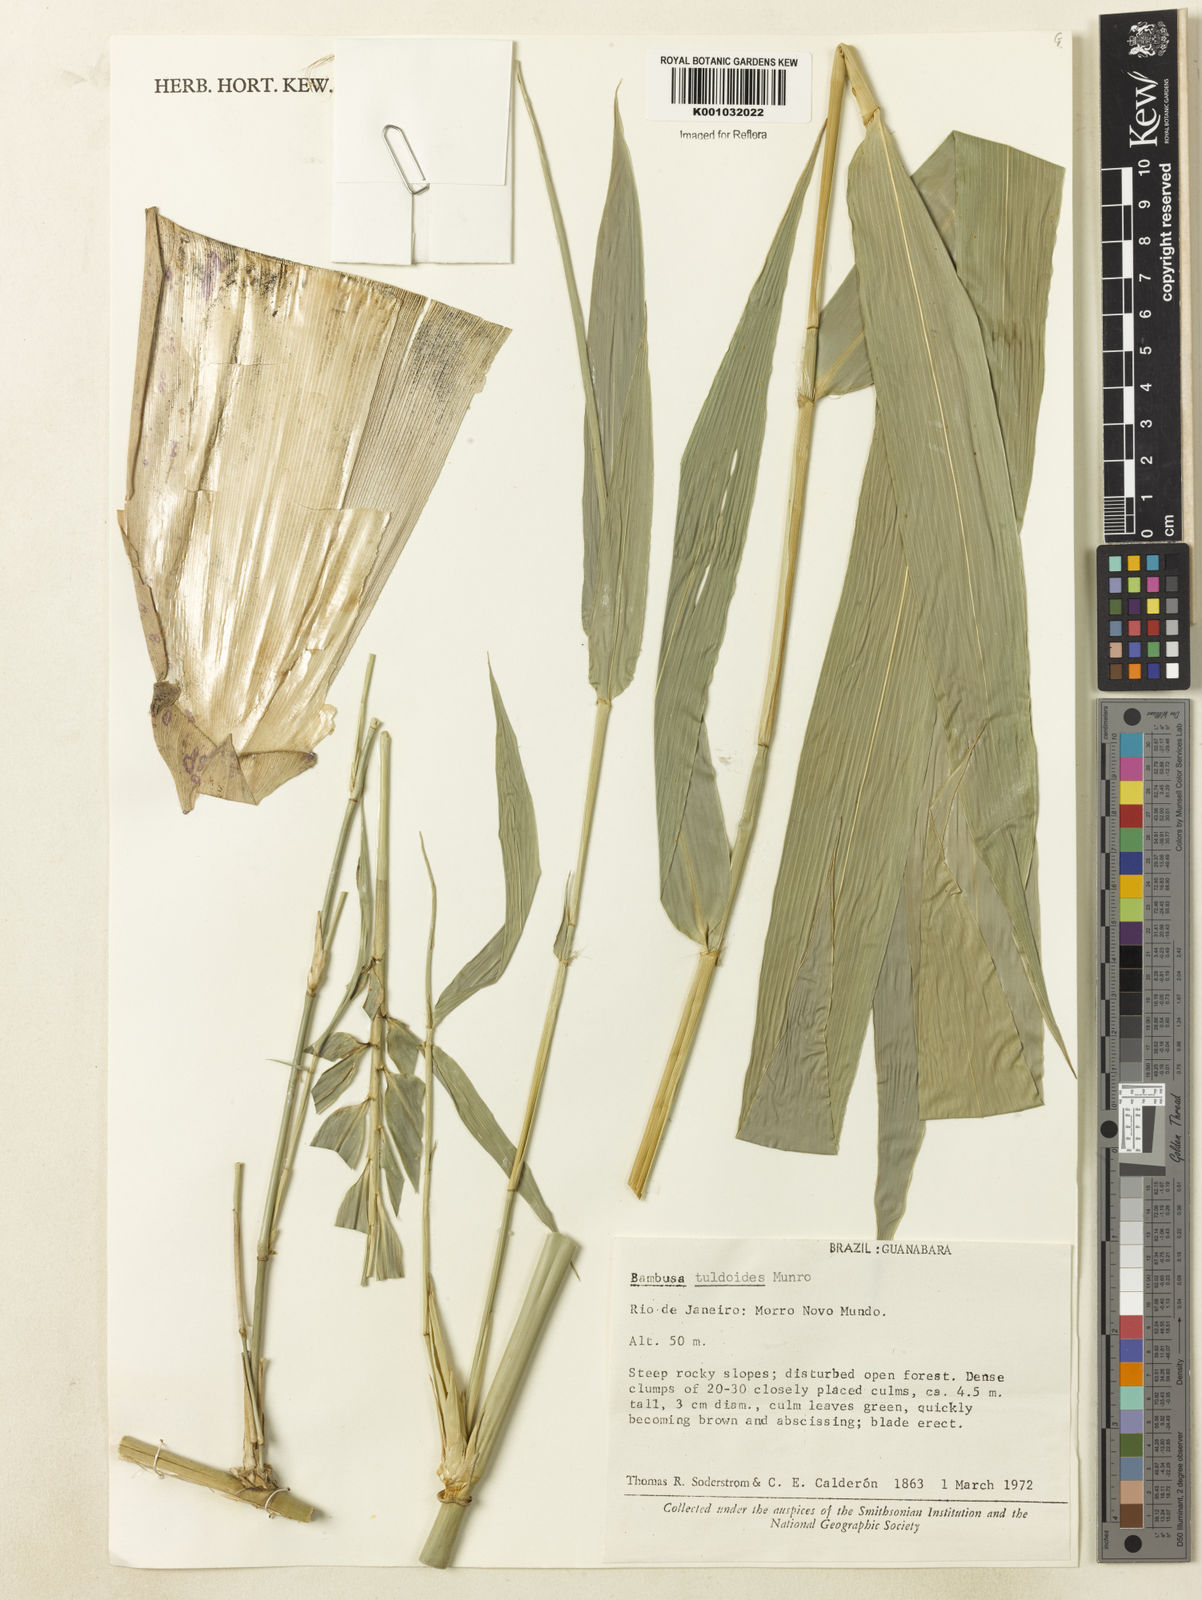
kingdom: Plantae
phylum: Tracheophyta
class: Liliopsida
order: Poales
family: Poaceae
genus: Bambusa
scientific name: Bambusa tuldoides
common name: Verdant bamboo
